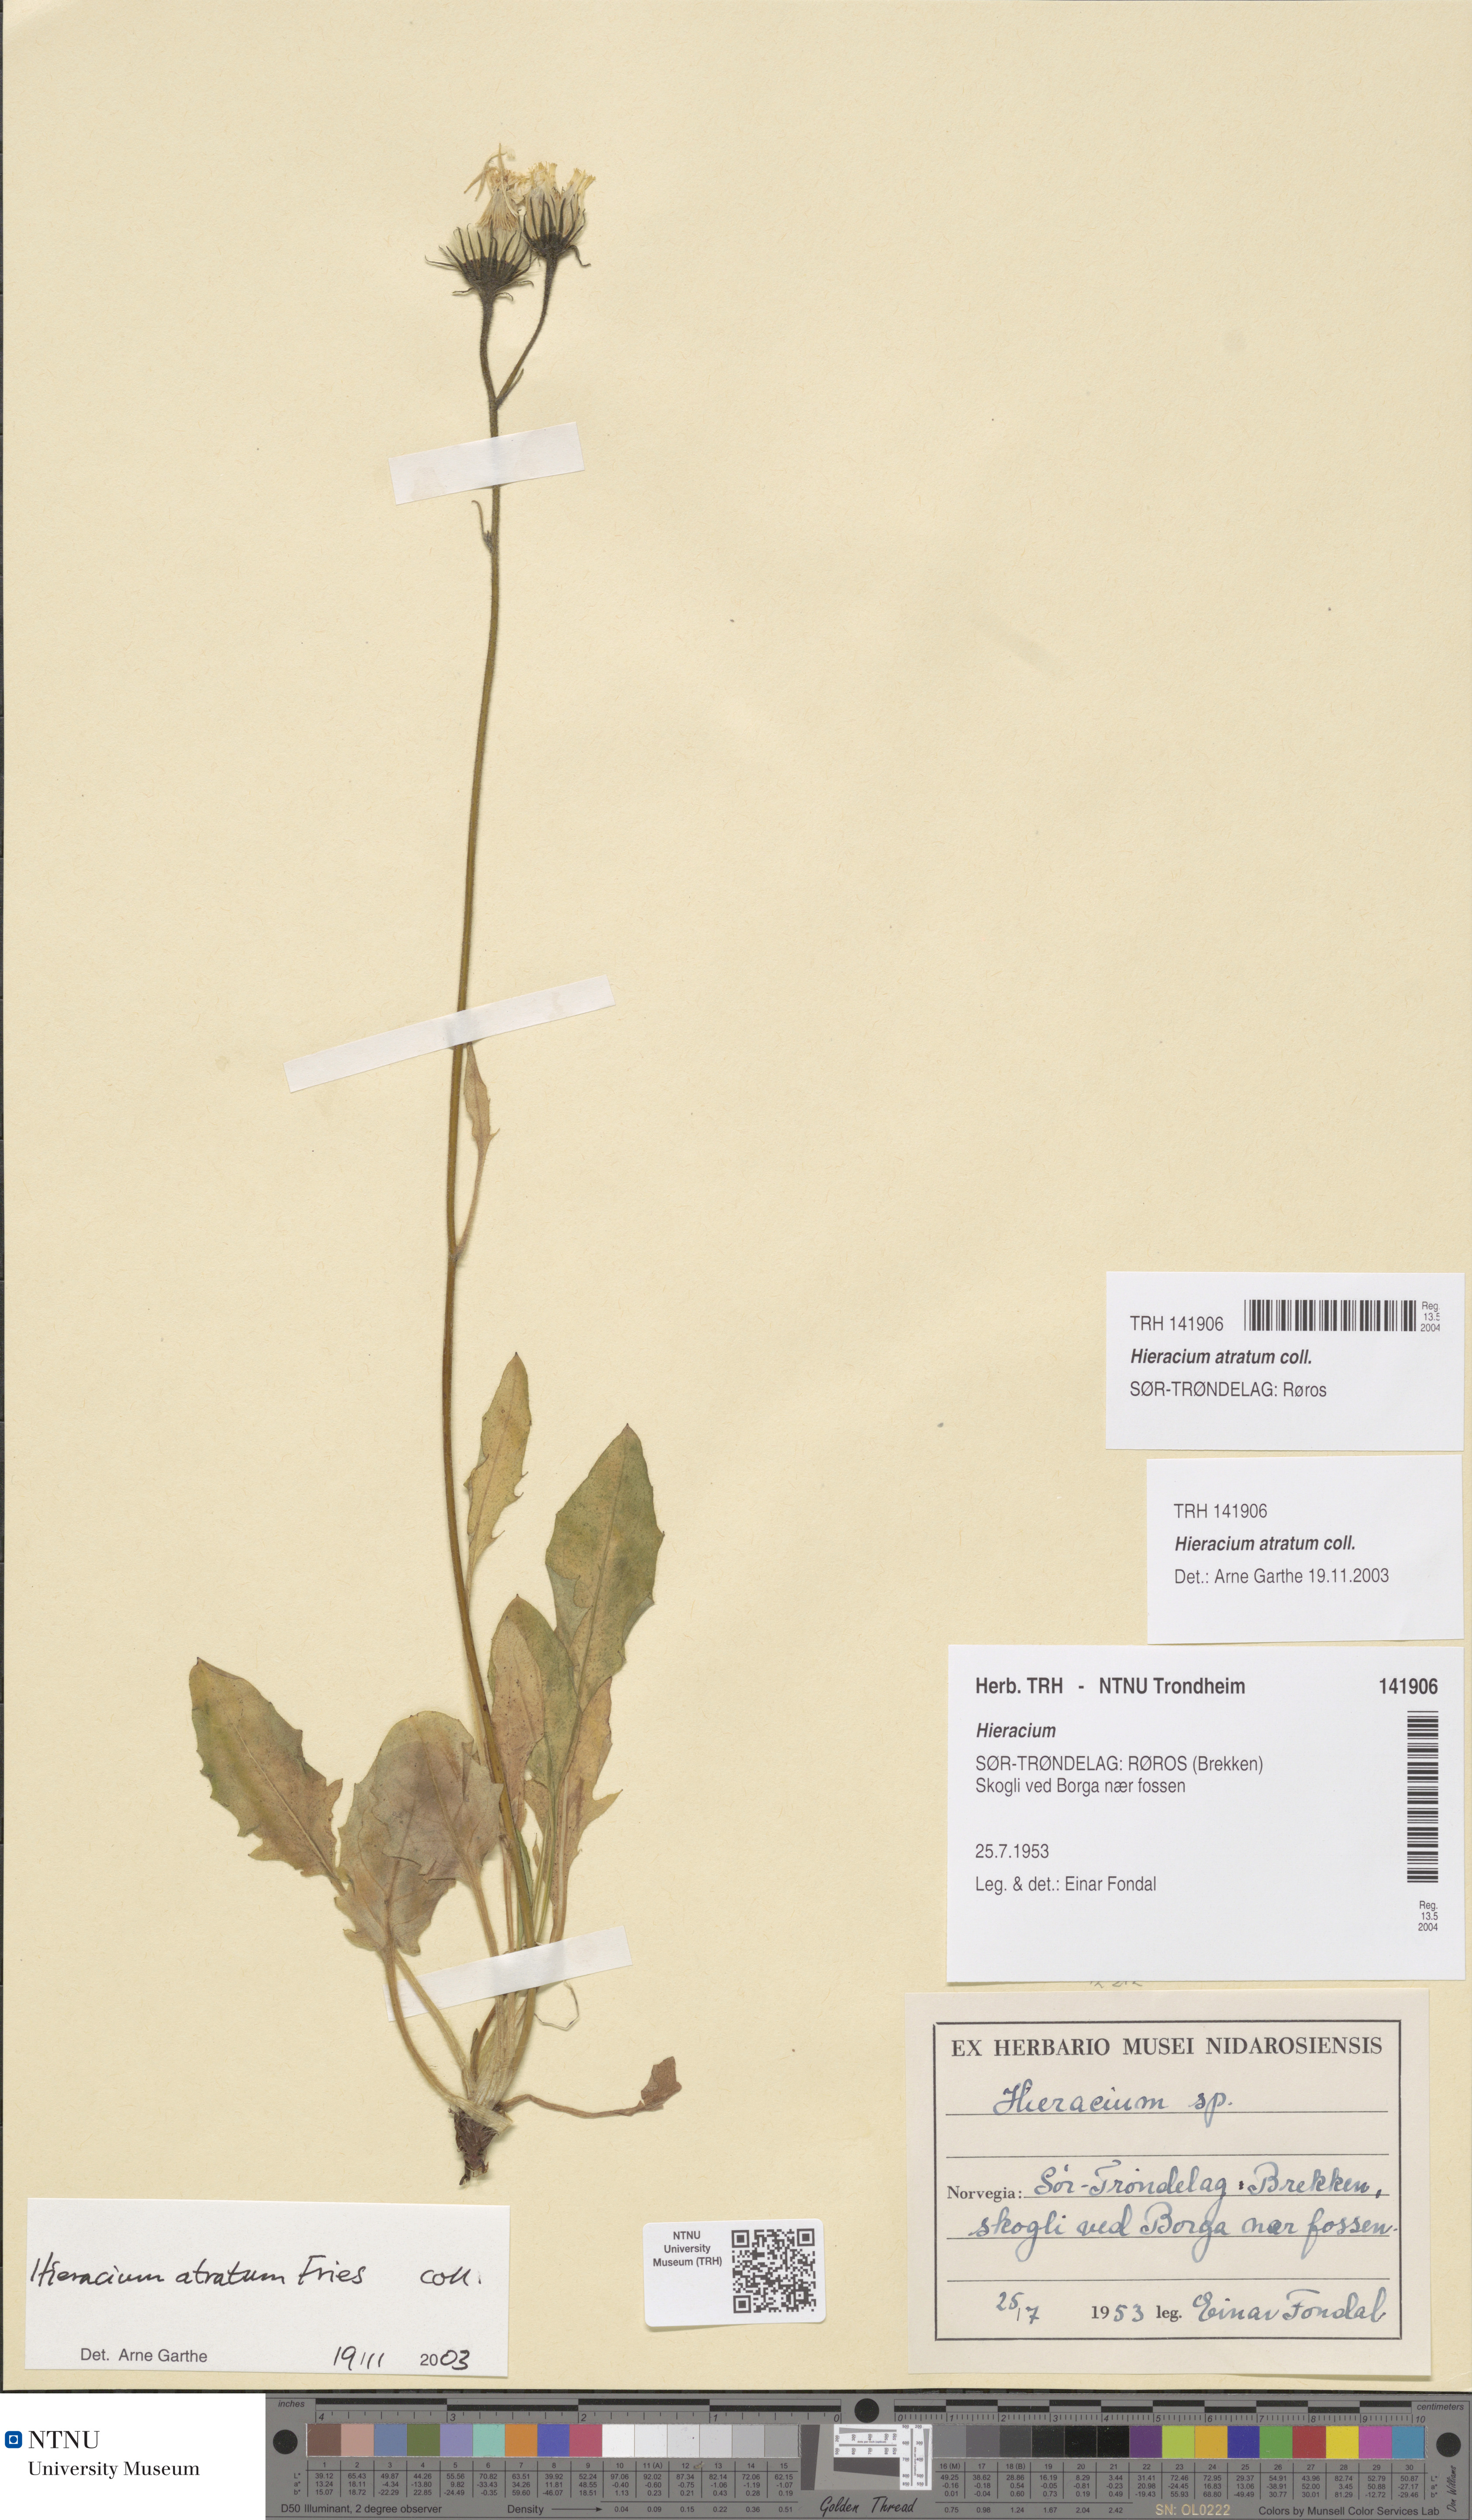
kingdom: Plantae
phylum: Tracheophyta
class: Magnoliopsida
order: Asterales
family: Asteraceae
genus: Hieracium
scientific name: Hieracium atratum
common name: Polar hawkweed
